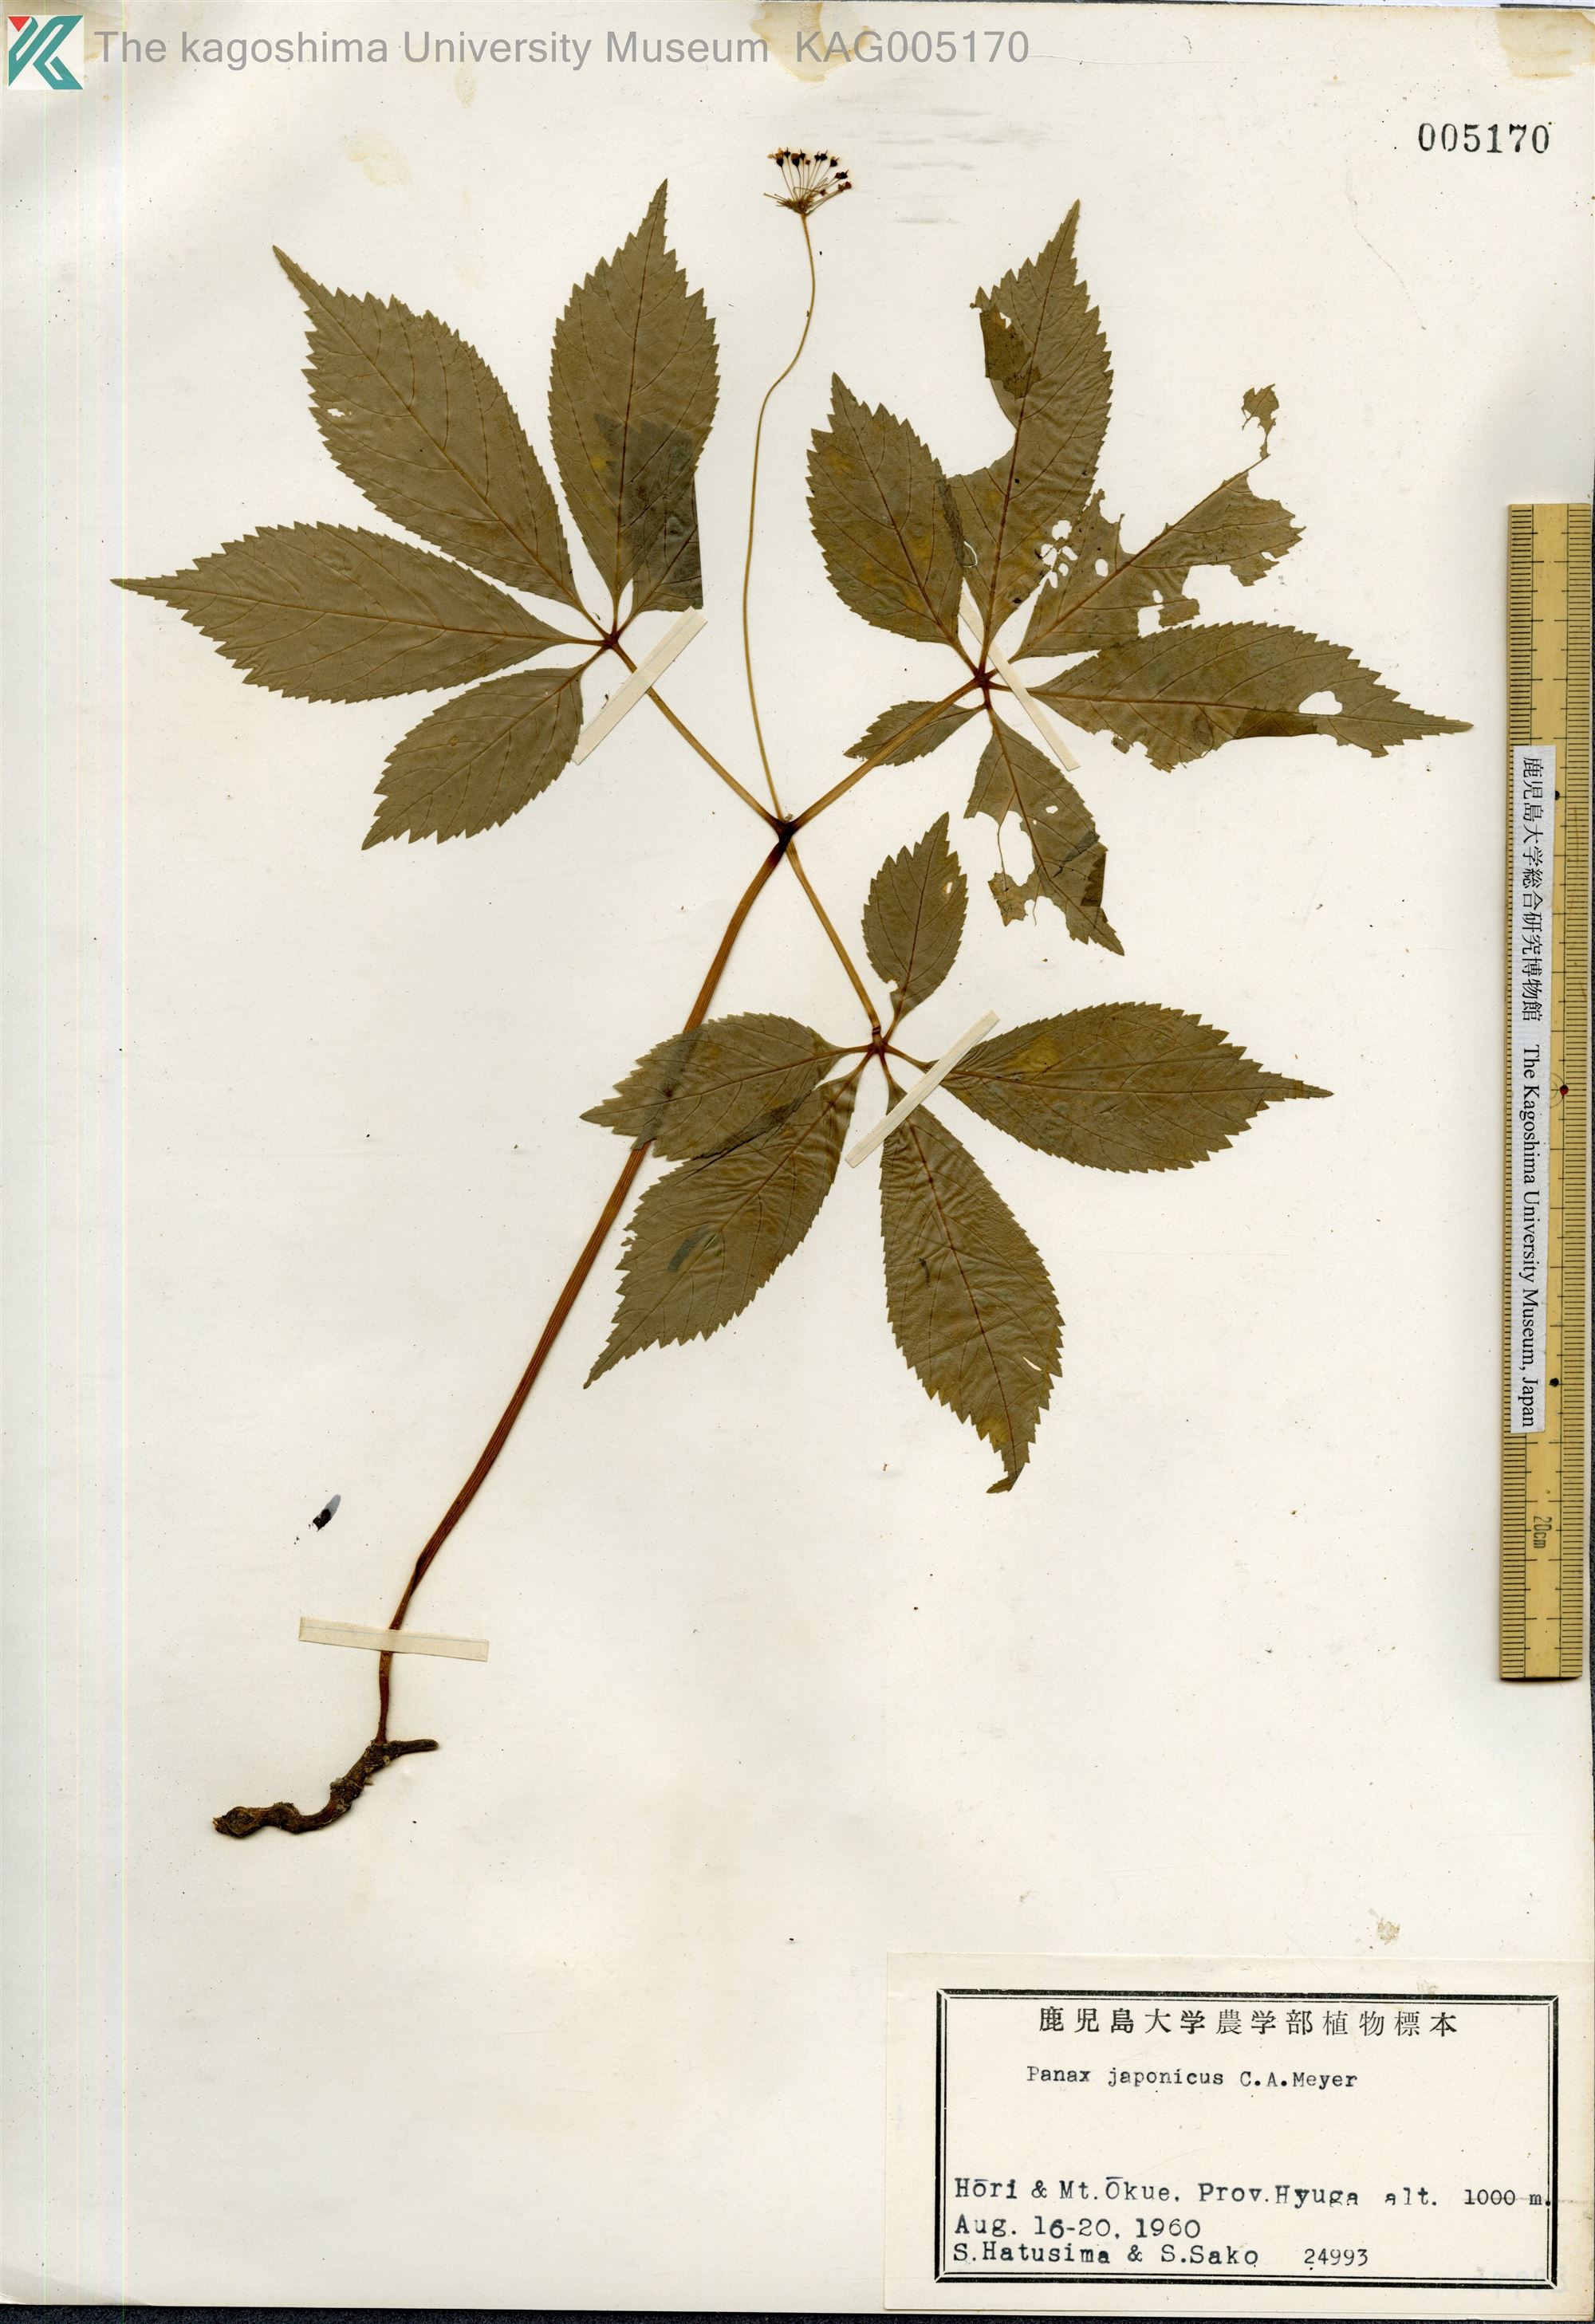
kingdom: Plantae
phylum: Tracheophyta
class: Magnoliopsida
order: Apiales
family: Araliaceae
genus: Panax
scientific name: Panax japonicus
